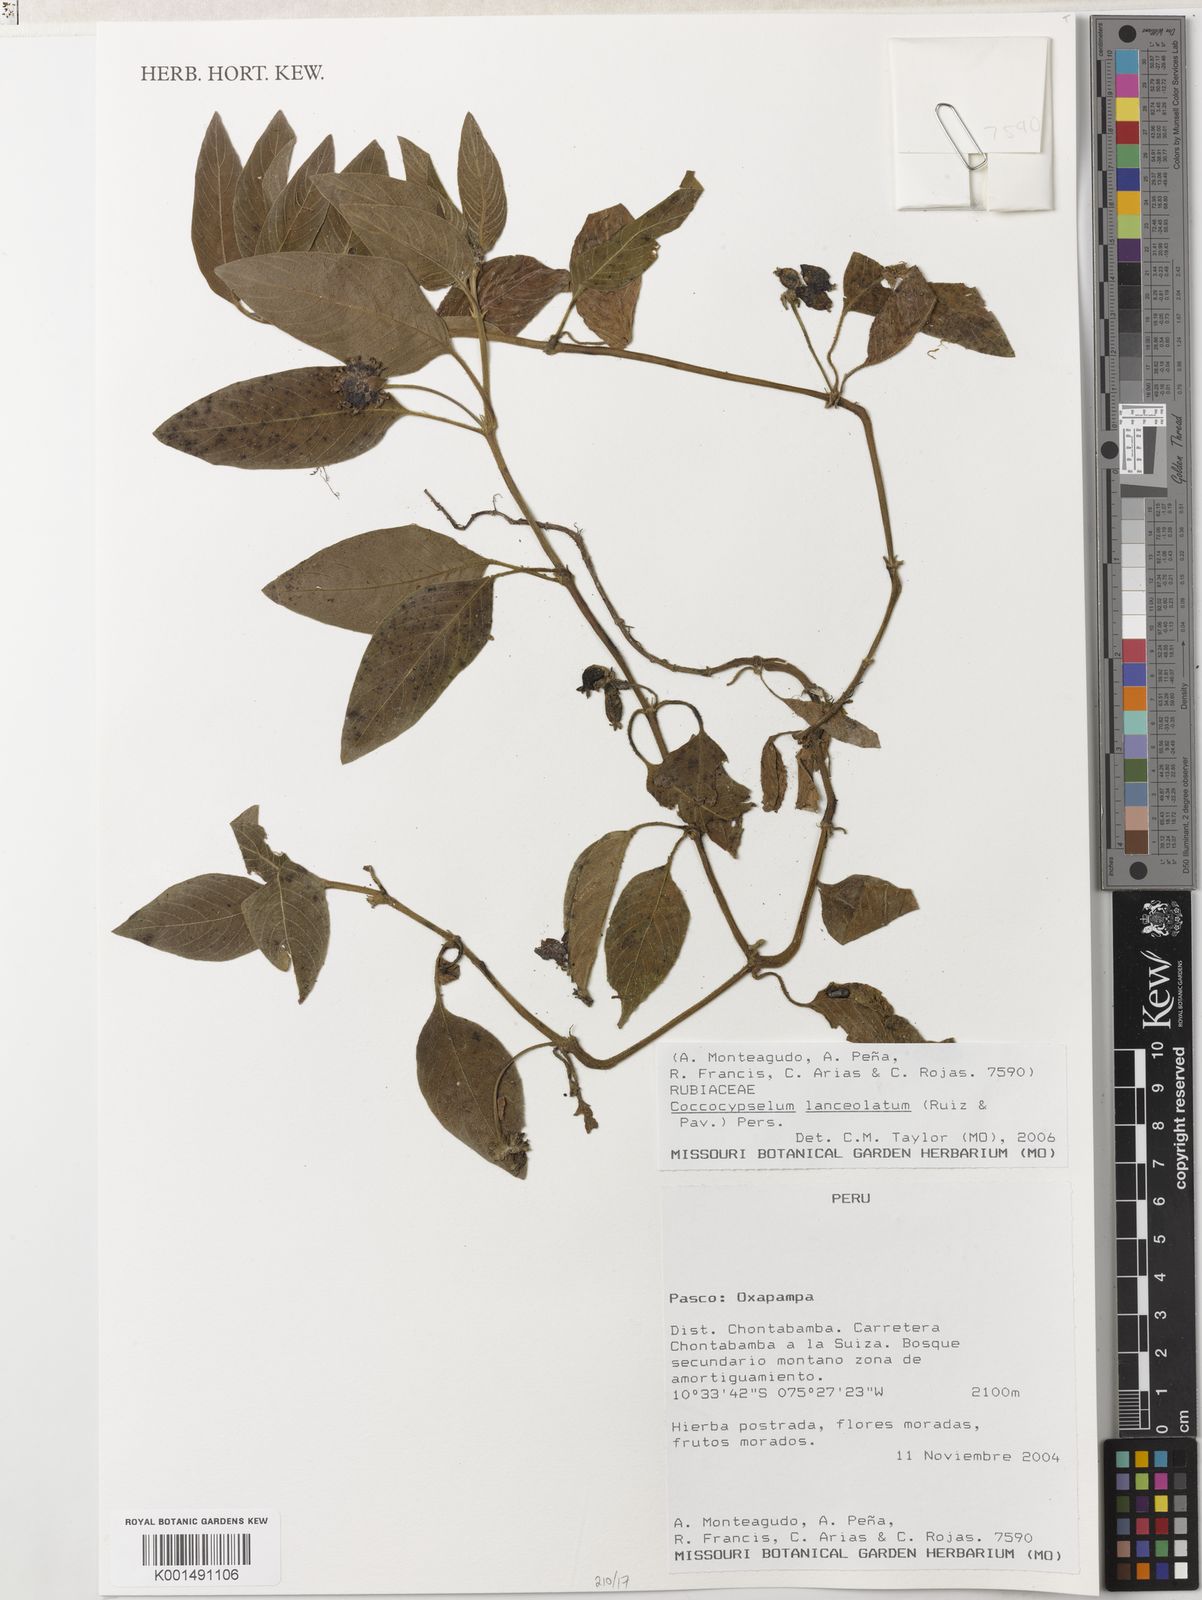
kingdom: Plantae
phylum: Tracheophyta
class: Magnoliopsida
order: Gentianales
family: Rubiaceae
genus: Coccocypselum
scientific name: Coccocypselum lanceolatum
